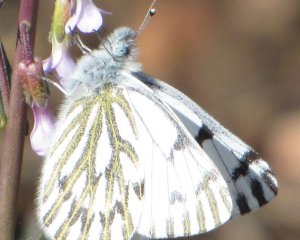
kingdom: Animalia
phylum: Arthropoda
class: Insecta
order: Lepidoptera
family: Pieridae
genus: Pontia
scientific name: Pontia sisymbrii
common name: Spring White
